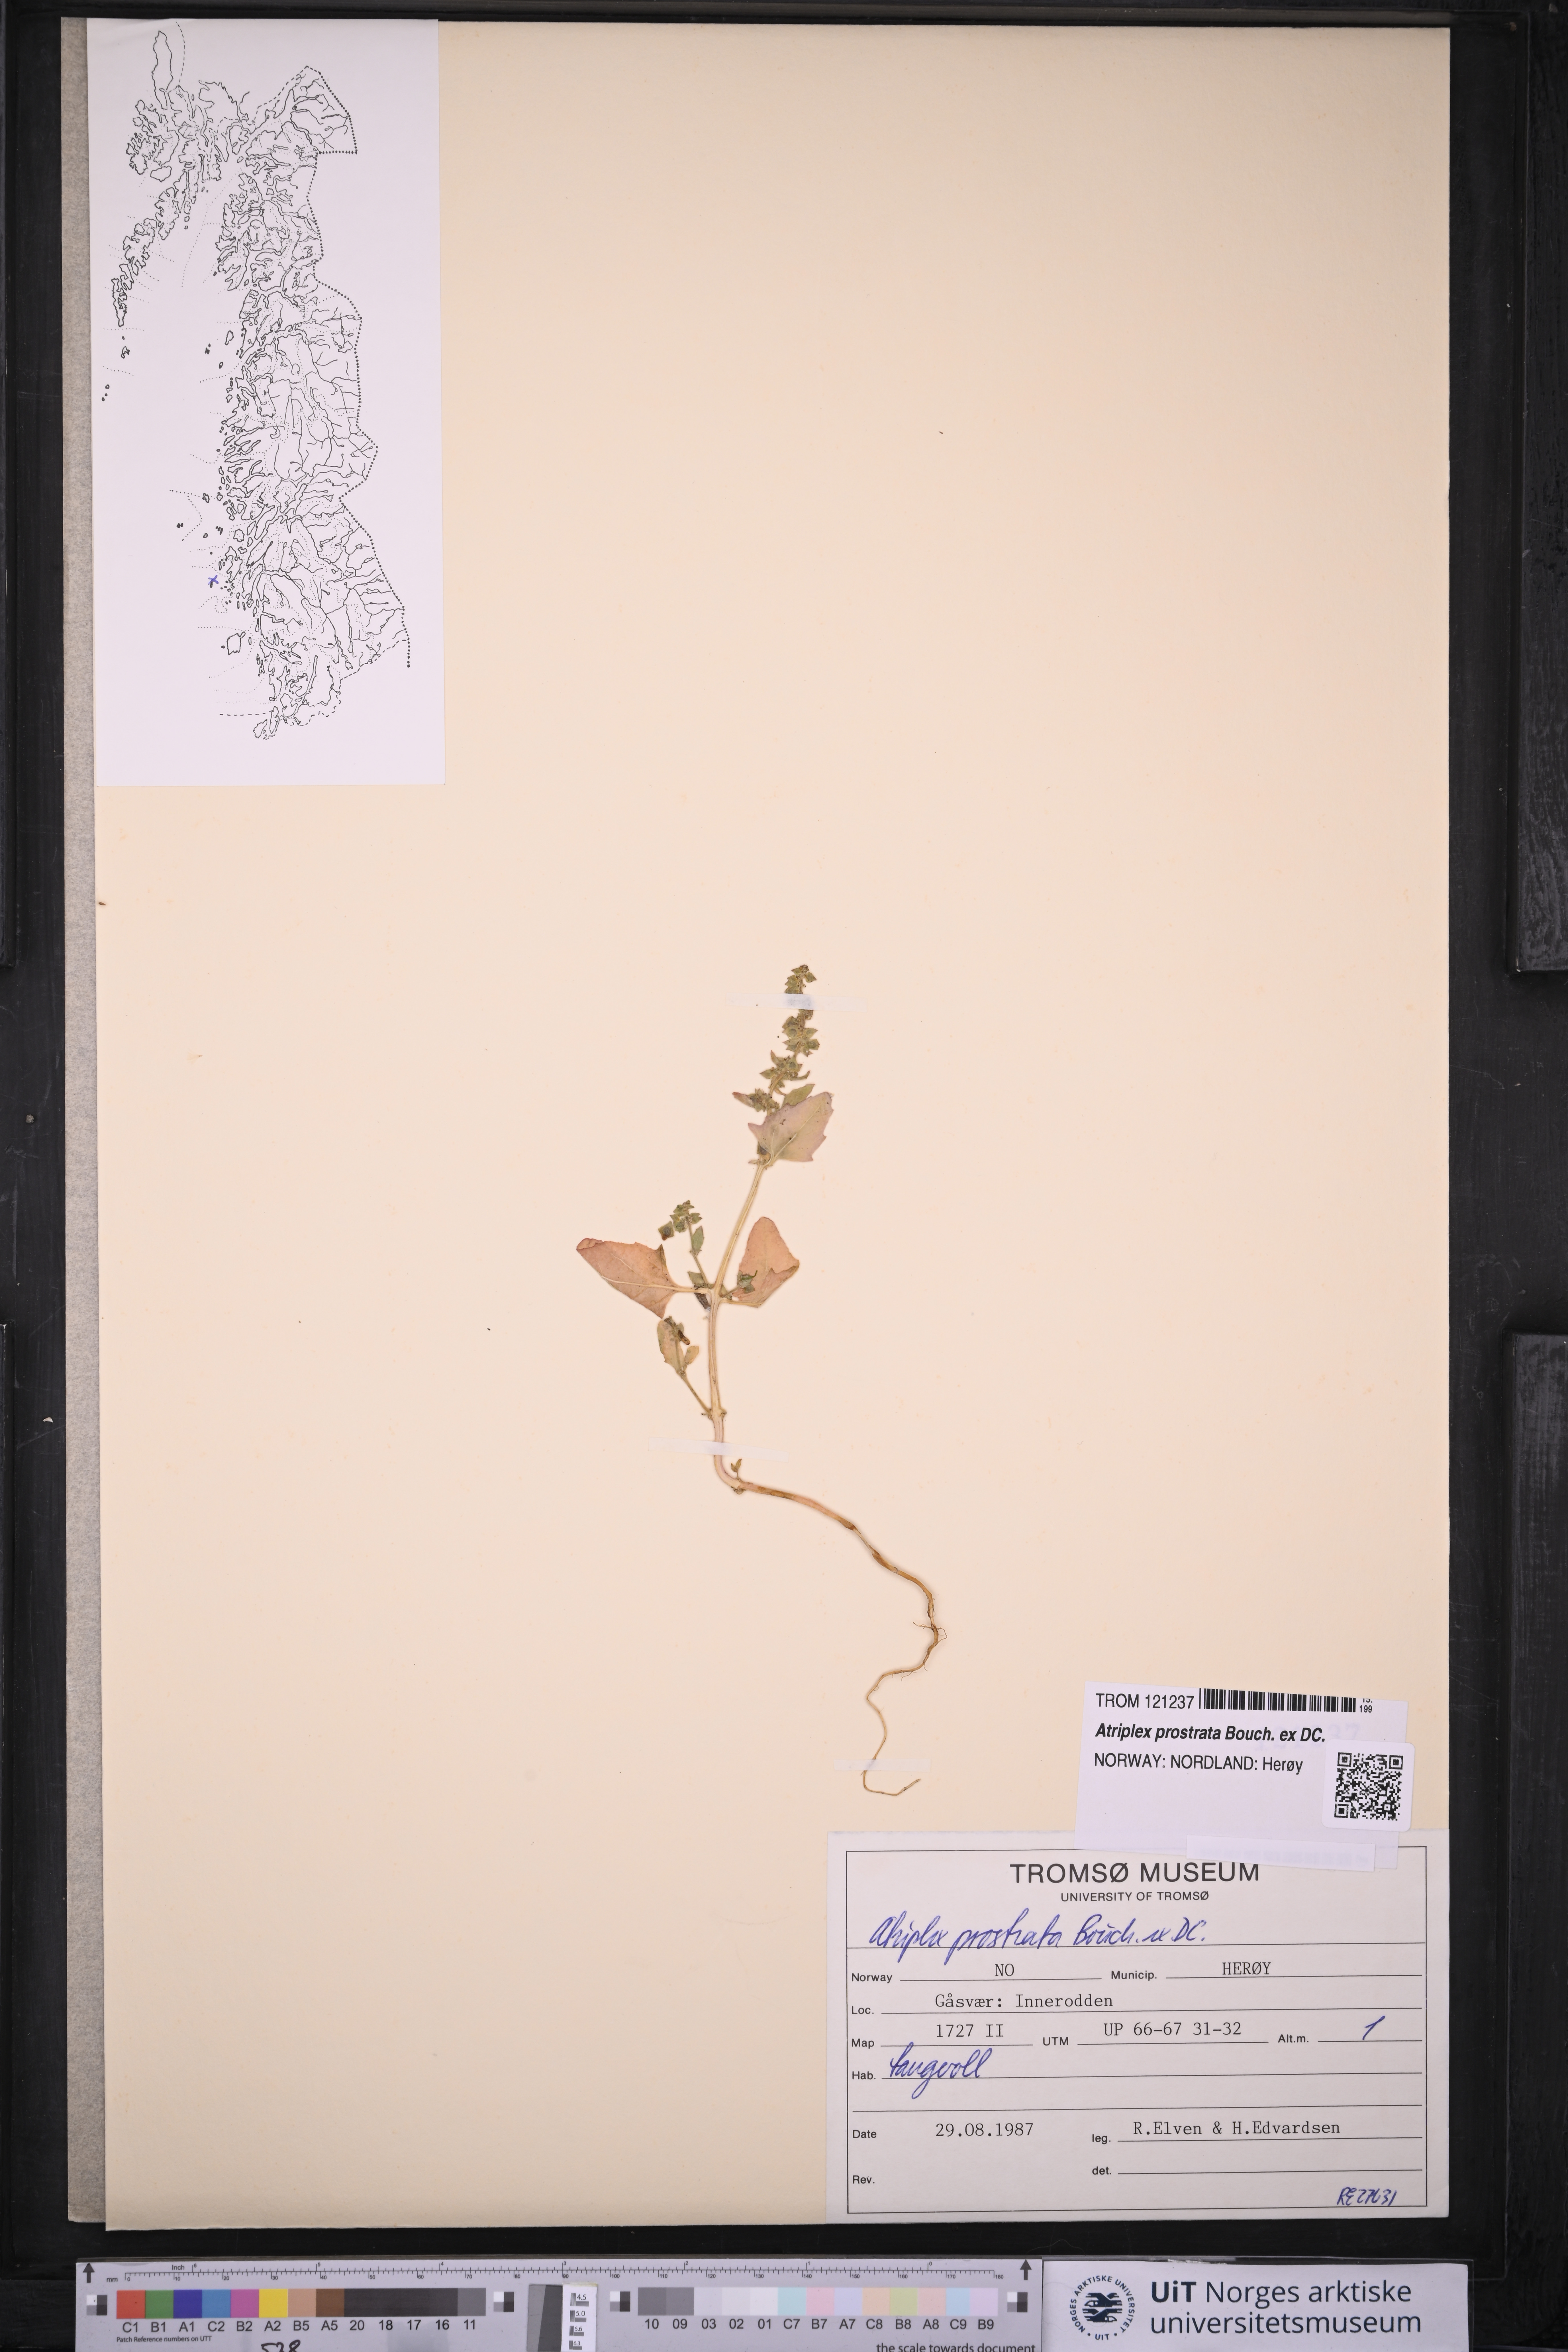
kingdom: Plantae
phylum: Tracheophyta
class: Magnoliopsida
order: Caryophyllales
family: Amaranthaceae
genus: Atriplex
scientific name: Atriplex prostrata
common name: Spear-leaved orache
